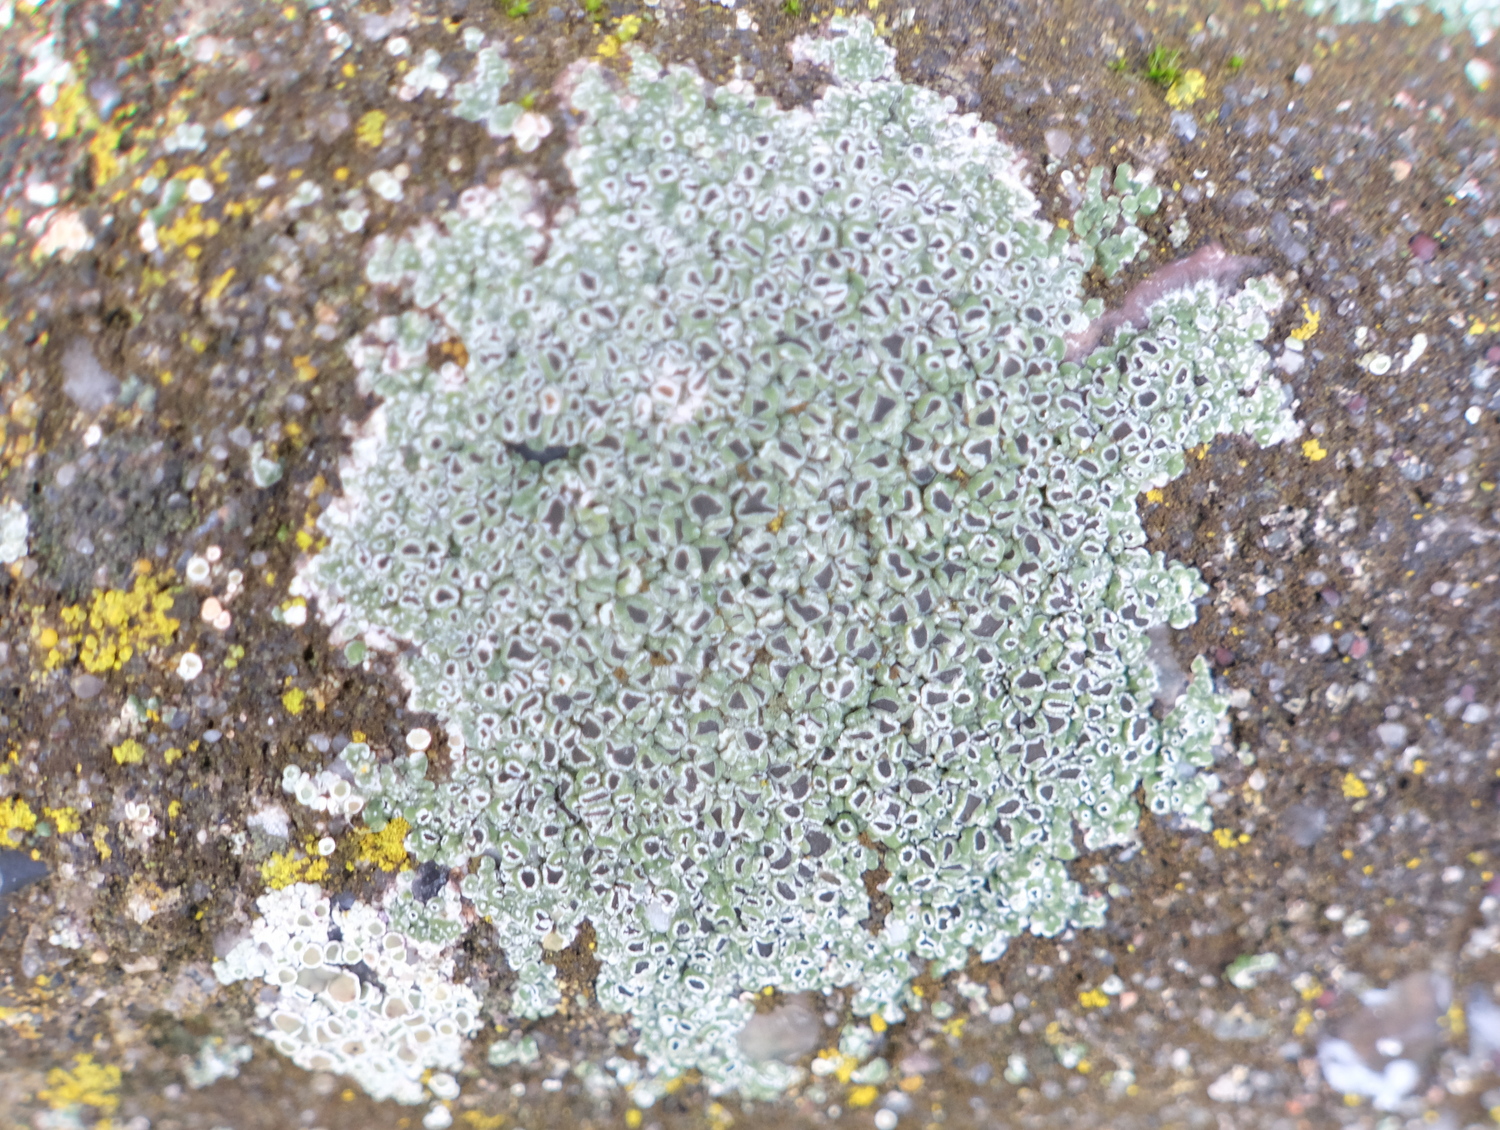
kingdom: Fungi
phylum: Ascomycota
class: Lecanoromycetes
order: Pertusariales
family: Megasporaceae
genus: Circinaria
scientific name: Circinaria contorta
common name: indviklet hulskivelav
